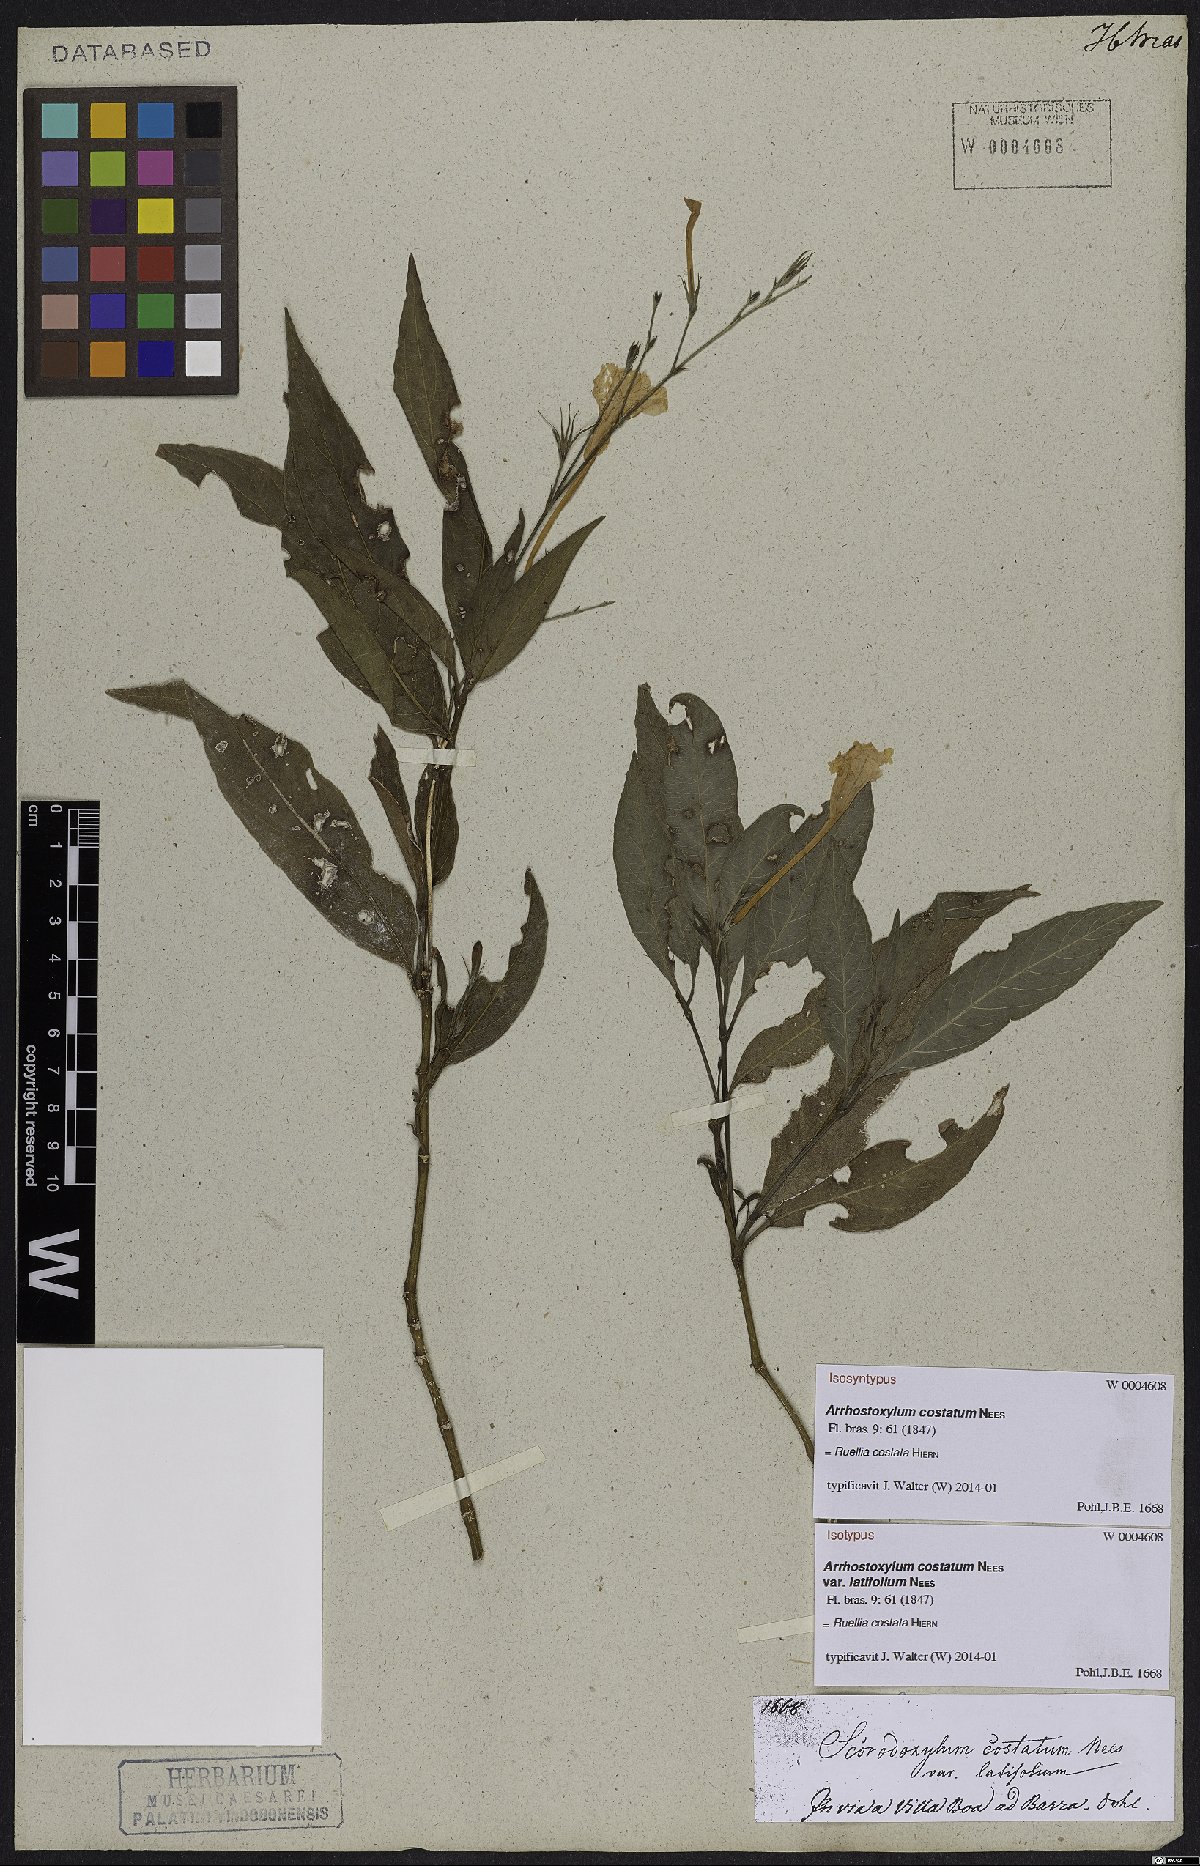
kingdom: Plantae
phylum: Tracheophyta
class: Magnoliopsida
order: Lamiales
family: Acanthaceae
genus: Ruellia
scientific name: Ruellia costata
